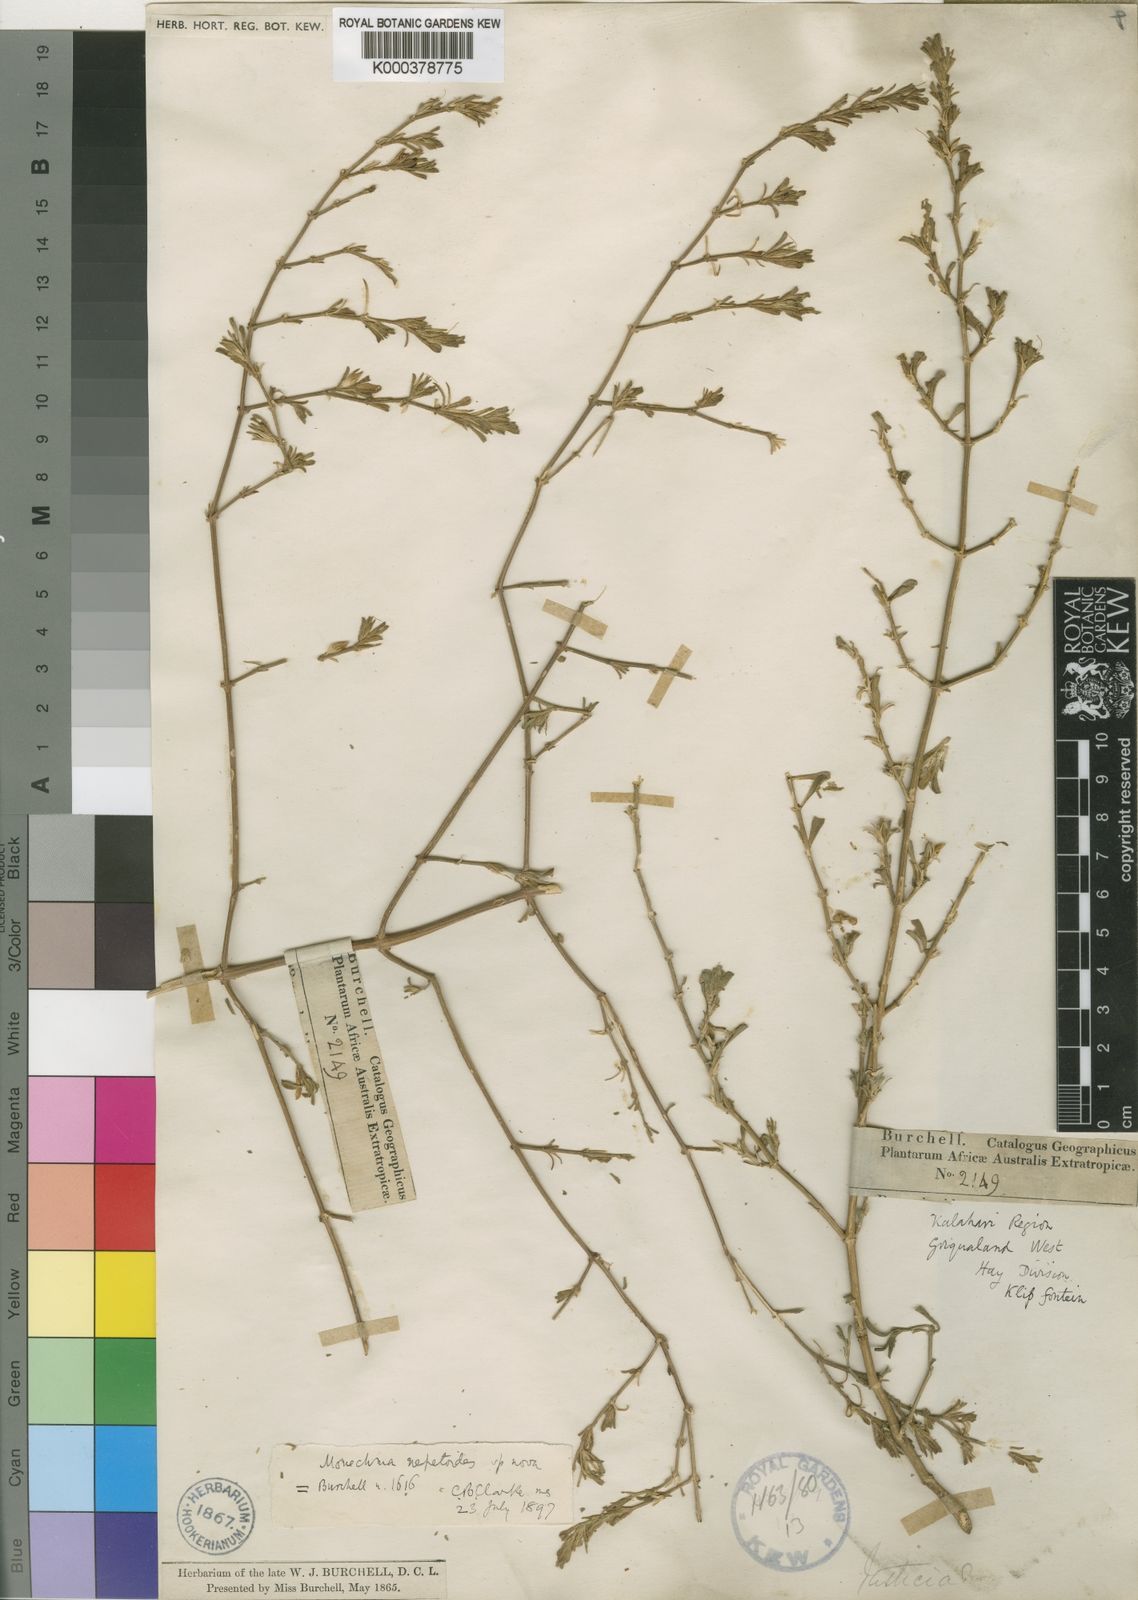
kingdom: Plantae
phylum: Tracheophyta
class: Magnoliopsida
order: Lamiales
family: Acanthaceae
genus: Monechma
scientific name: Monechma divaricatum
